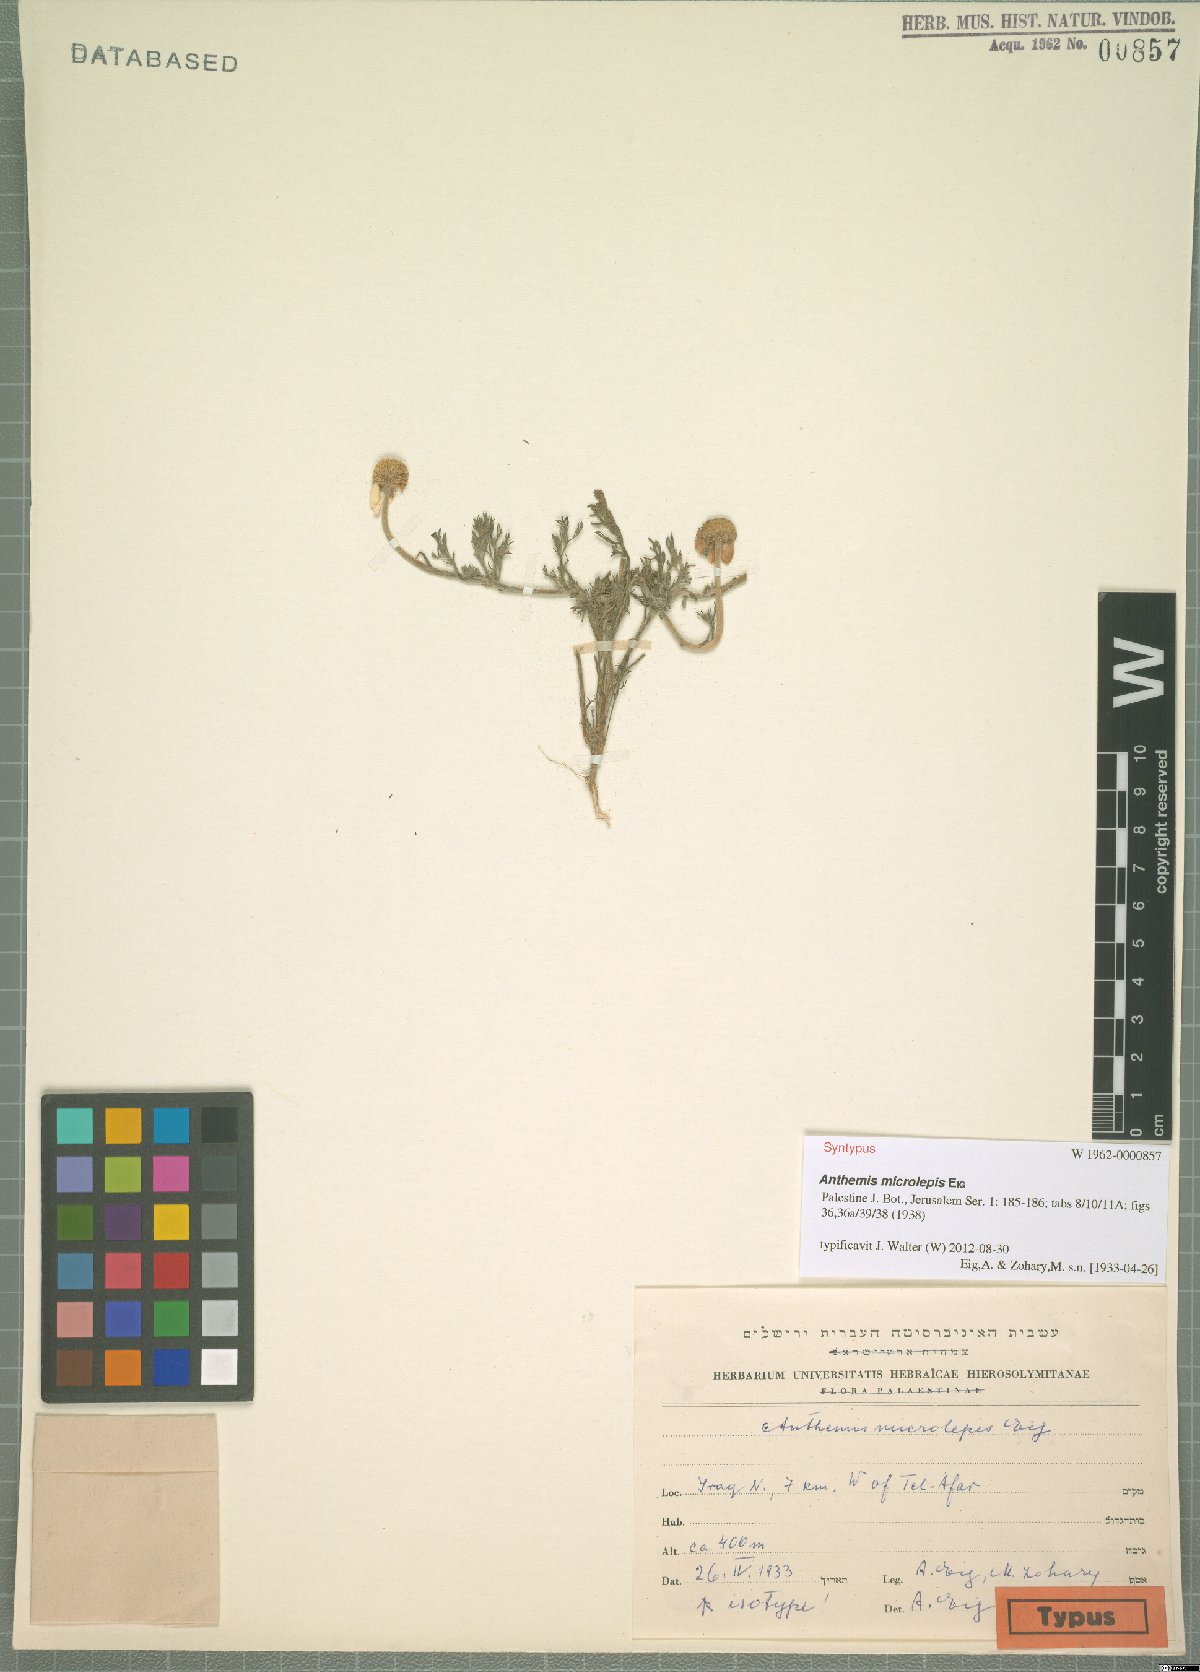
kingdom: Plantae
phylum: Tracheophyta
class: Magnoliopsida
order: Asterales
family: Asteraceae
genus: Anthemis
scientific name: Anthemis microlepis
